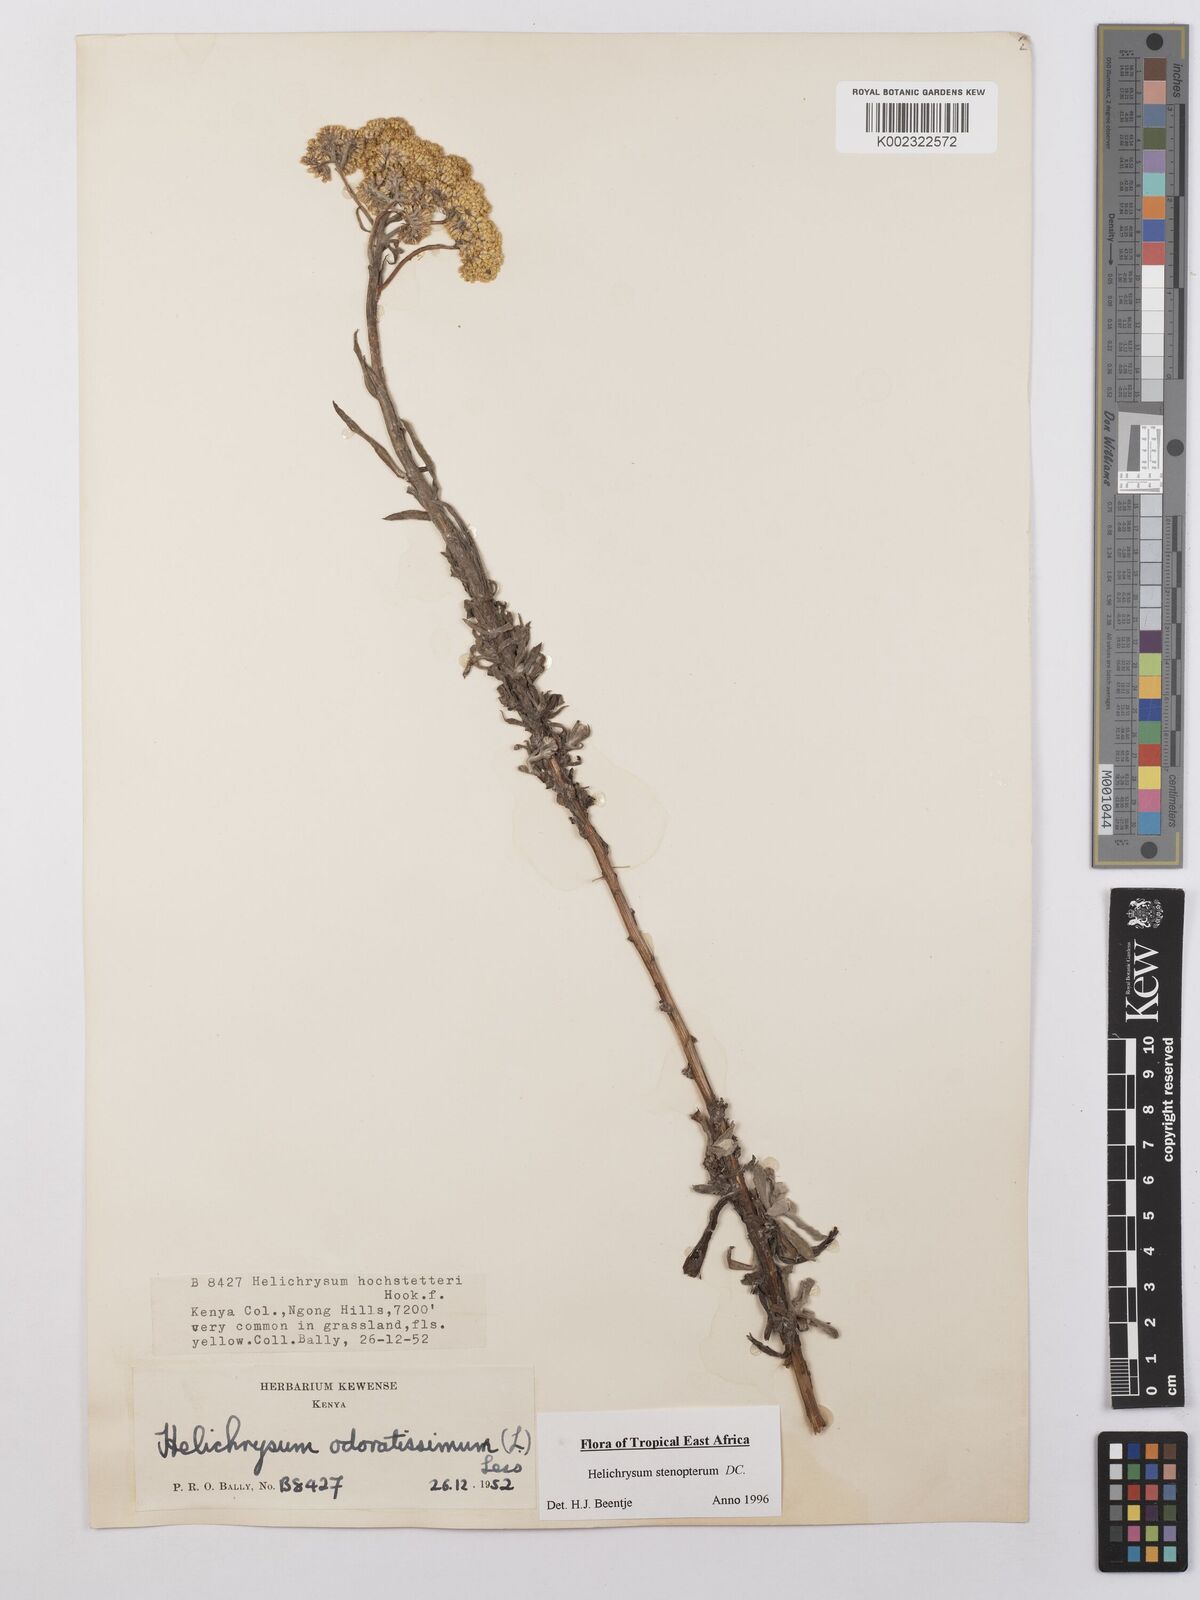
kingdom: Plantae
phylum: Tracheophyta
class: Magnoliopsida
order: Asterales
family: Asteraceae
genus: Helichrysum
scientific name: Helichrysum stenopterum
